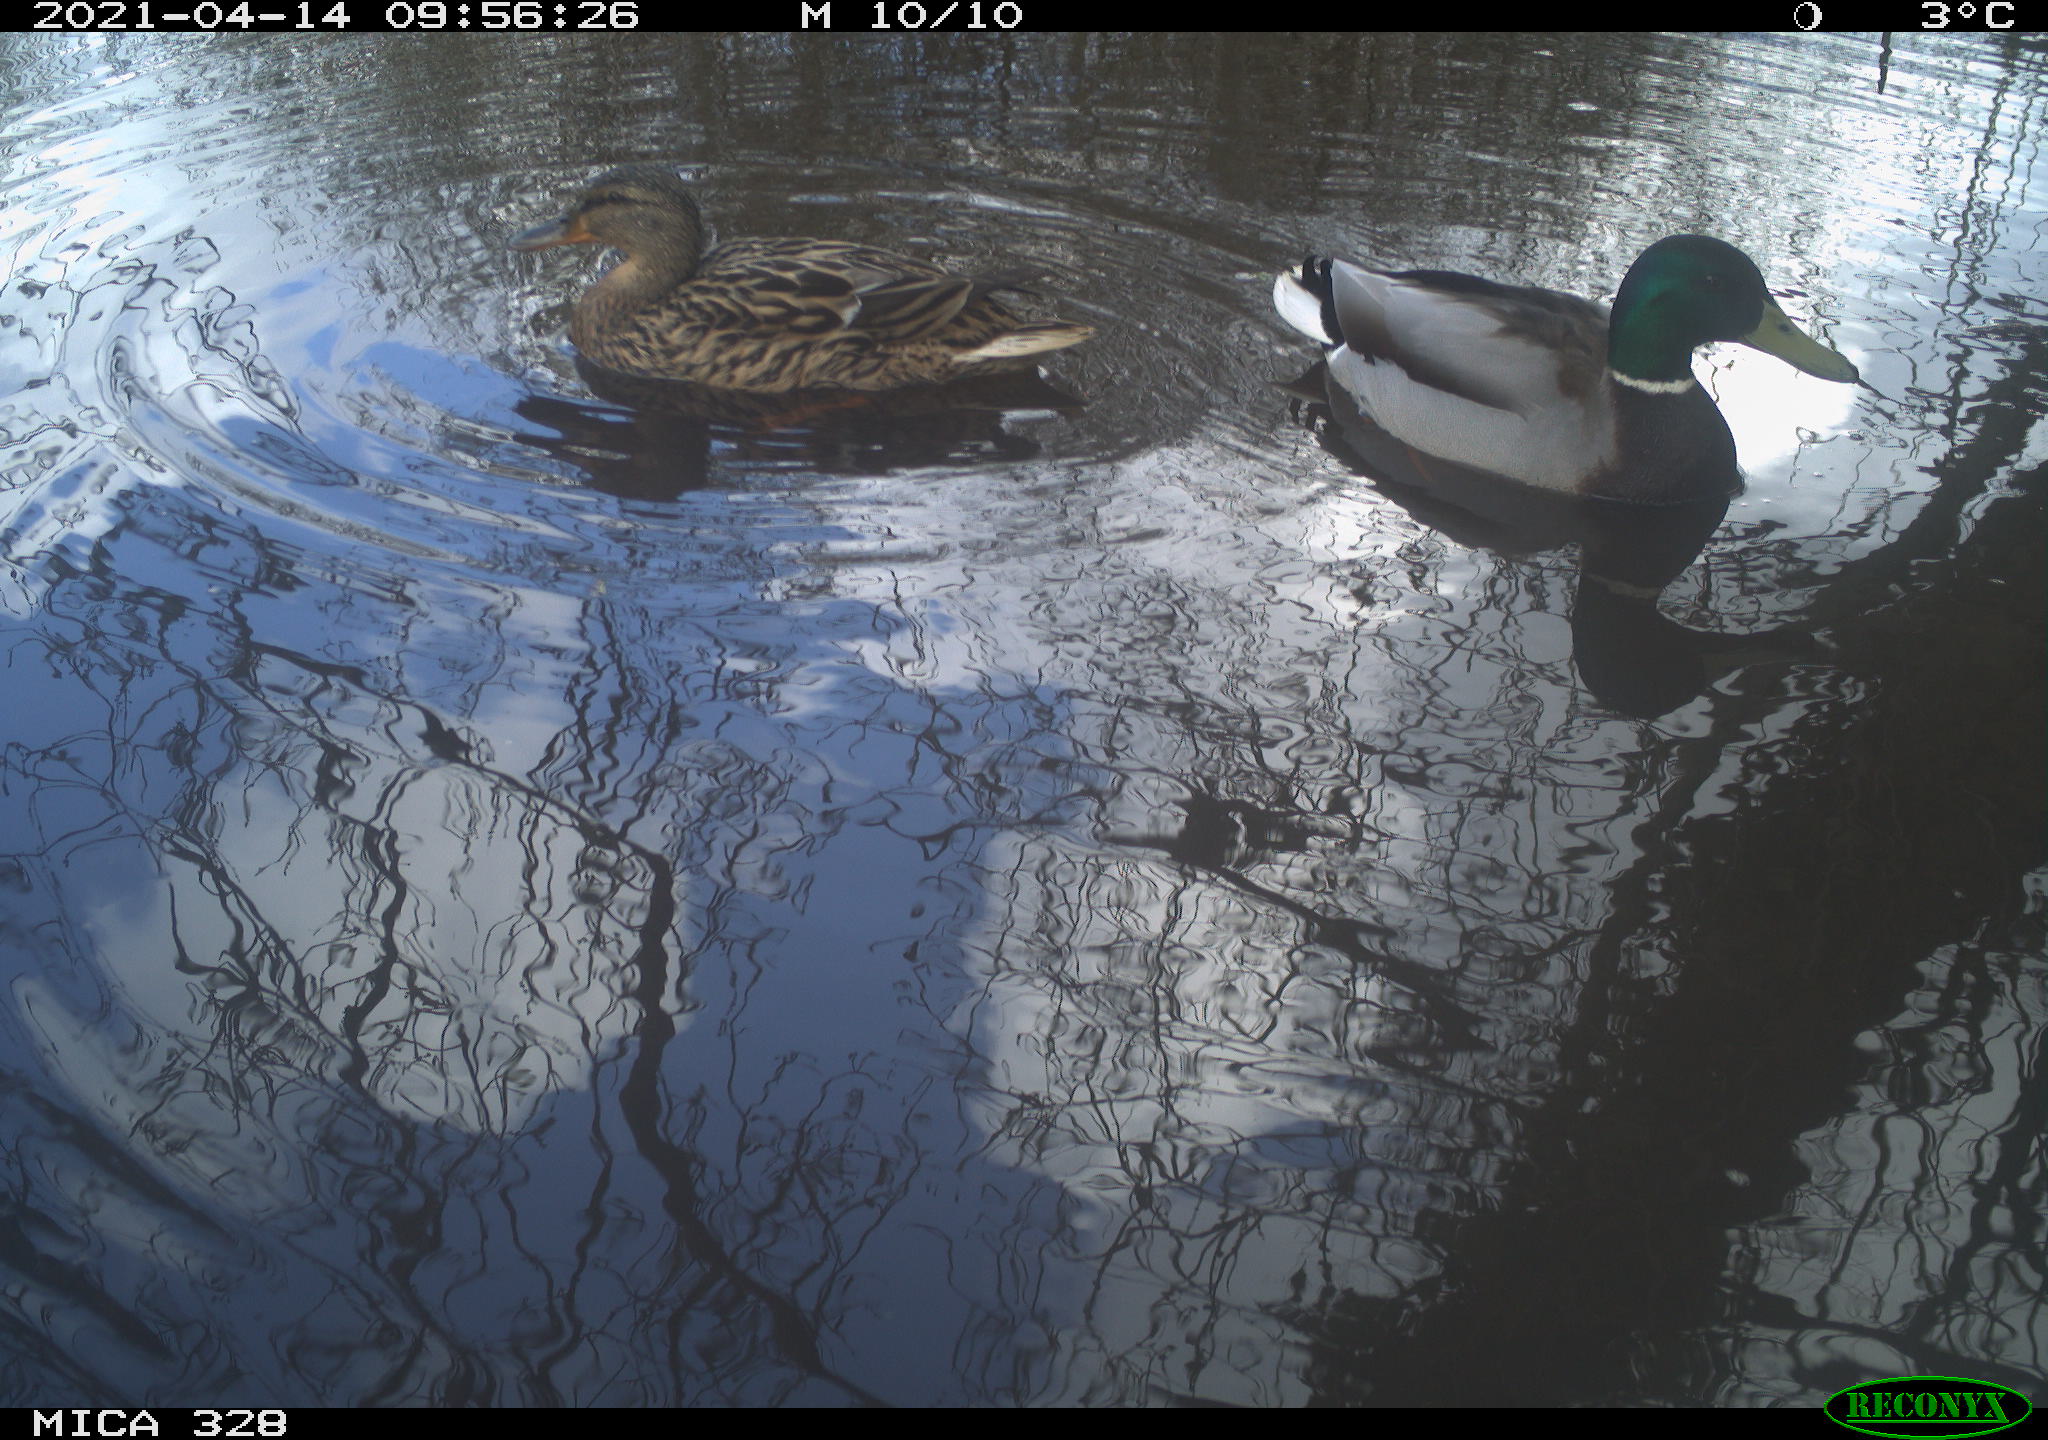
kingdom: Animalia
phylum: Chordata
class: Aves
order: Anseriformes
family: Anatidae
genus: Anas
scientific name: Anas platyrhynchos
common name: Mallard
